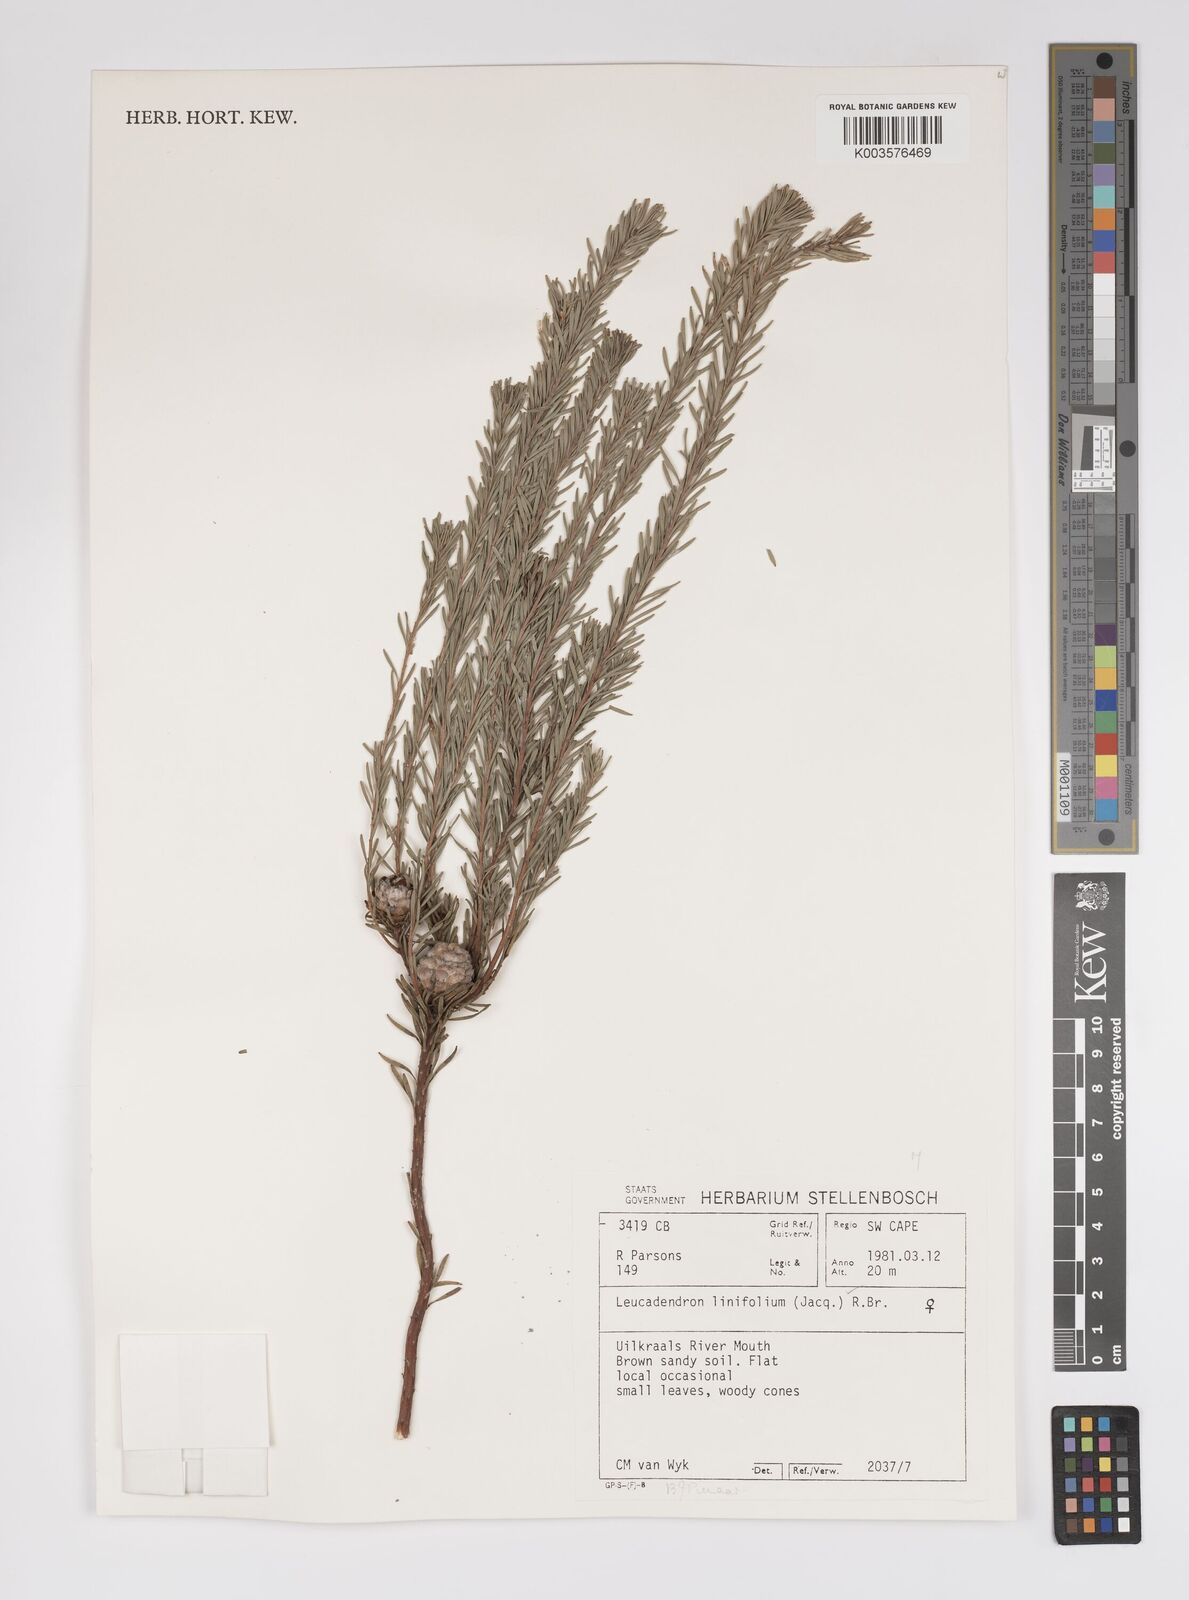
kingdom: Plantae
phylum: Tracheophyta
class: Magnoliopsida
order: Proteales
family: Proteaceae
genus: Leucadendron
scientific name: Leucadendron linifolium
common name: Line-leaf conebush
